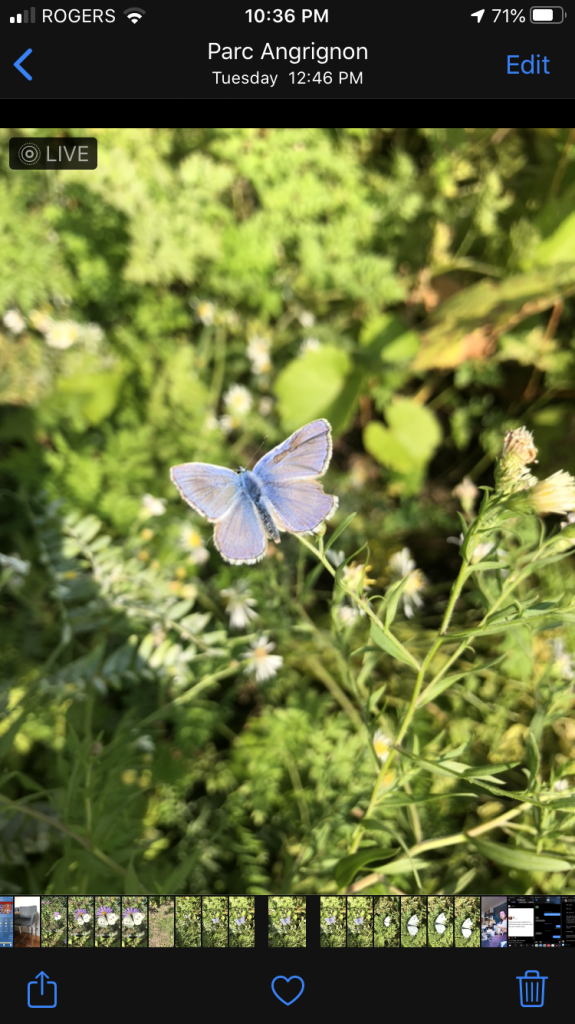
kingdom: Animalia
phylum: Arthropoda
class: Insecta
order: Lepidoptera
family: Lycaenidae
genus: Polyommatus
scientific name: Polyommatus icarus
